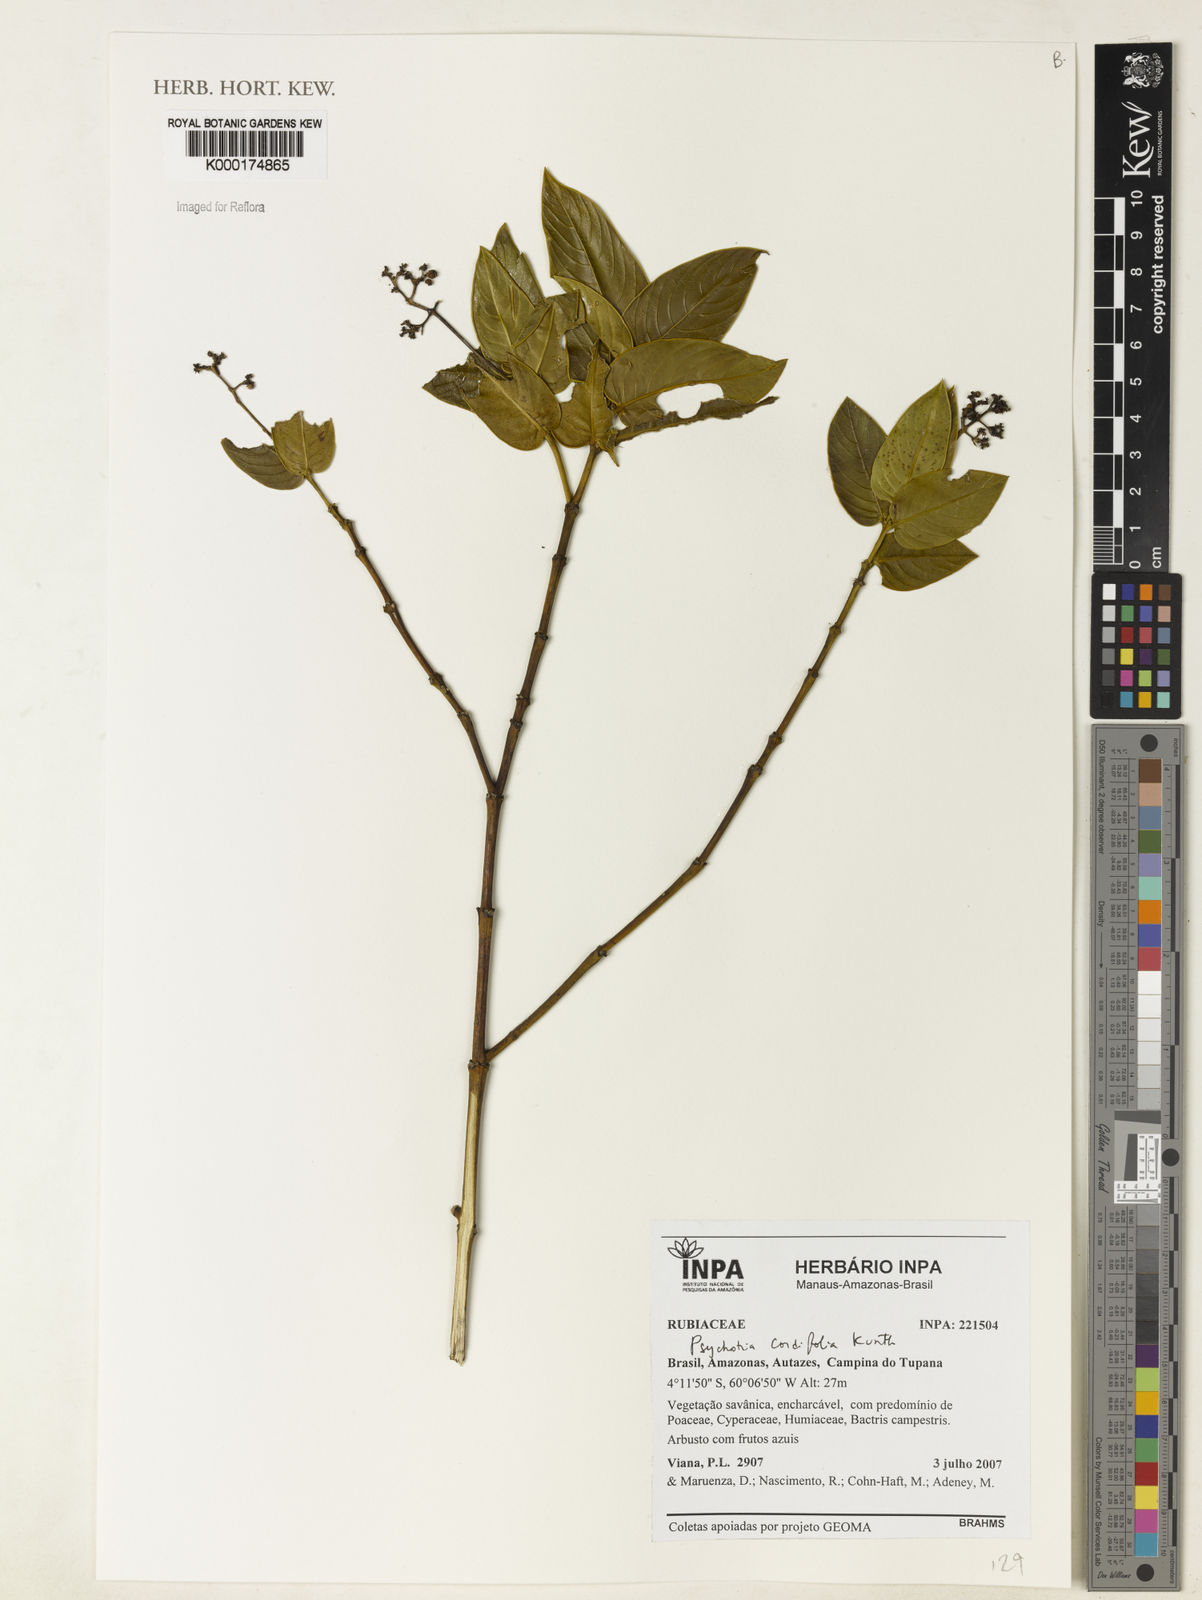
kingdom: Plantae
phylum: Tracheophyta
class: Magnoliopsida
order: Gentianales
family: Rubiaceae
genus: Psychotria
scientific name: Psychotria
